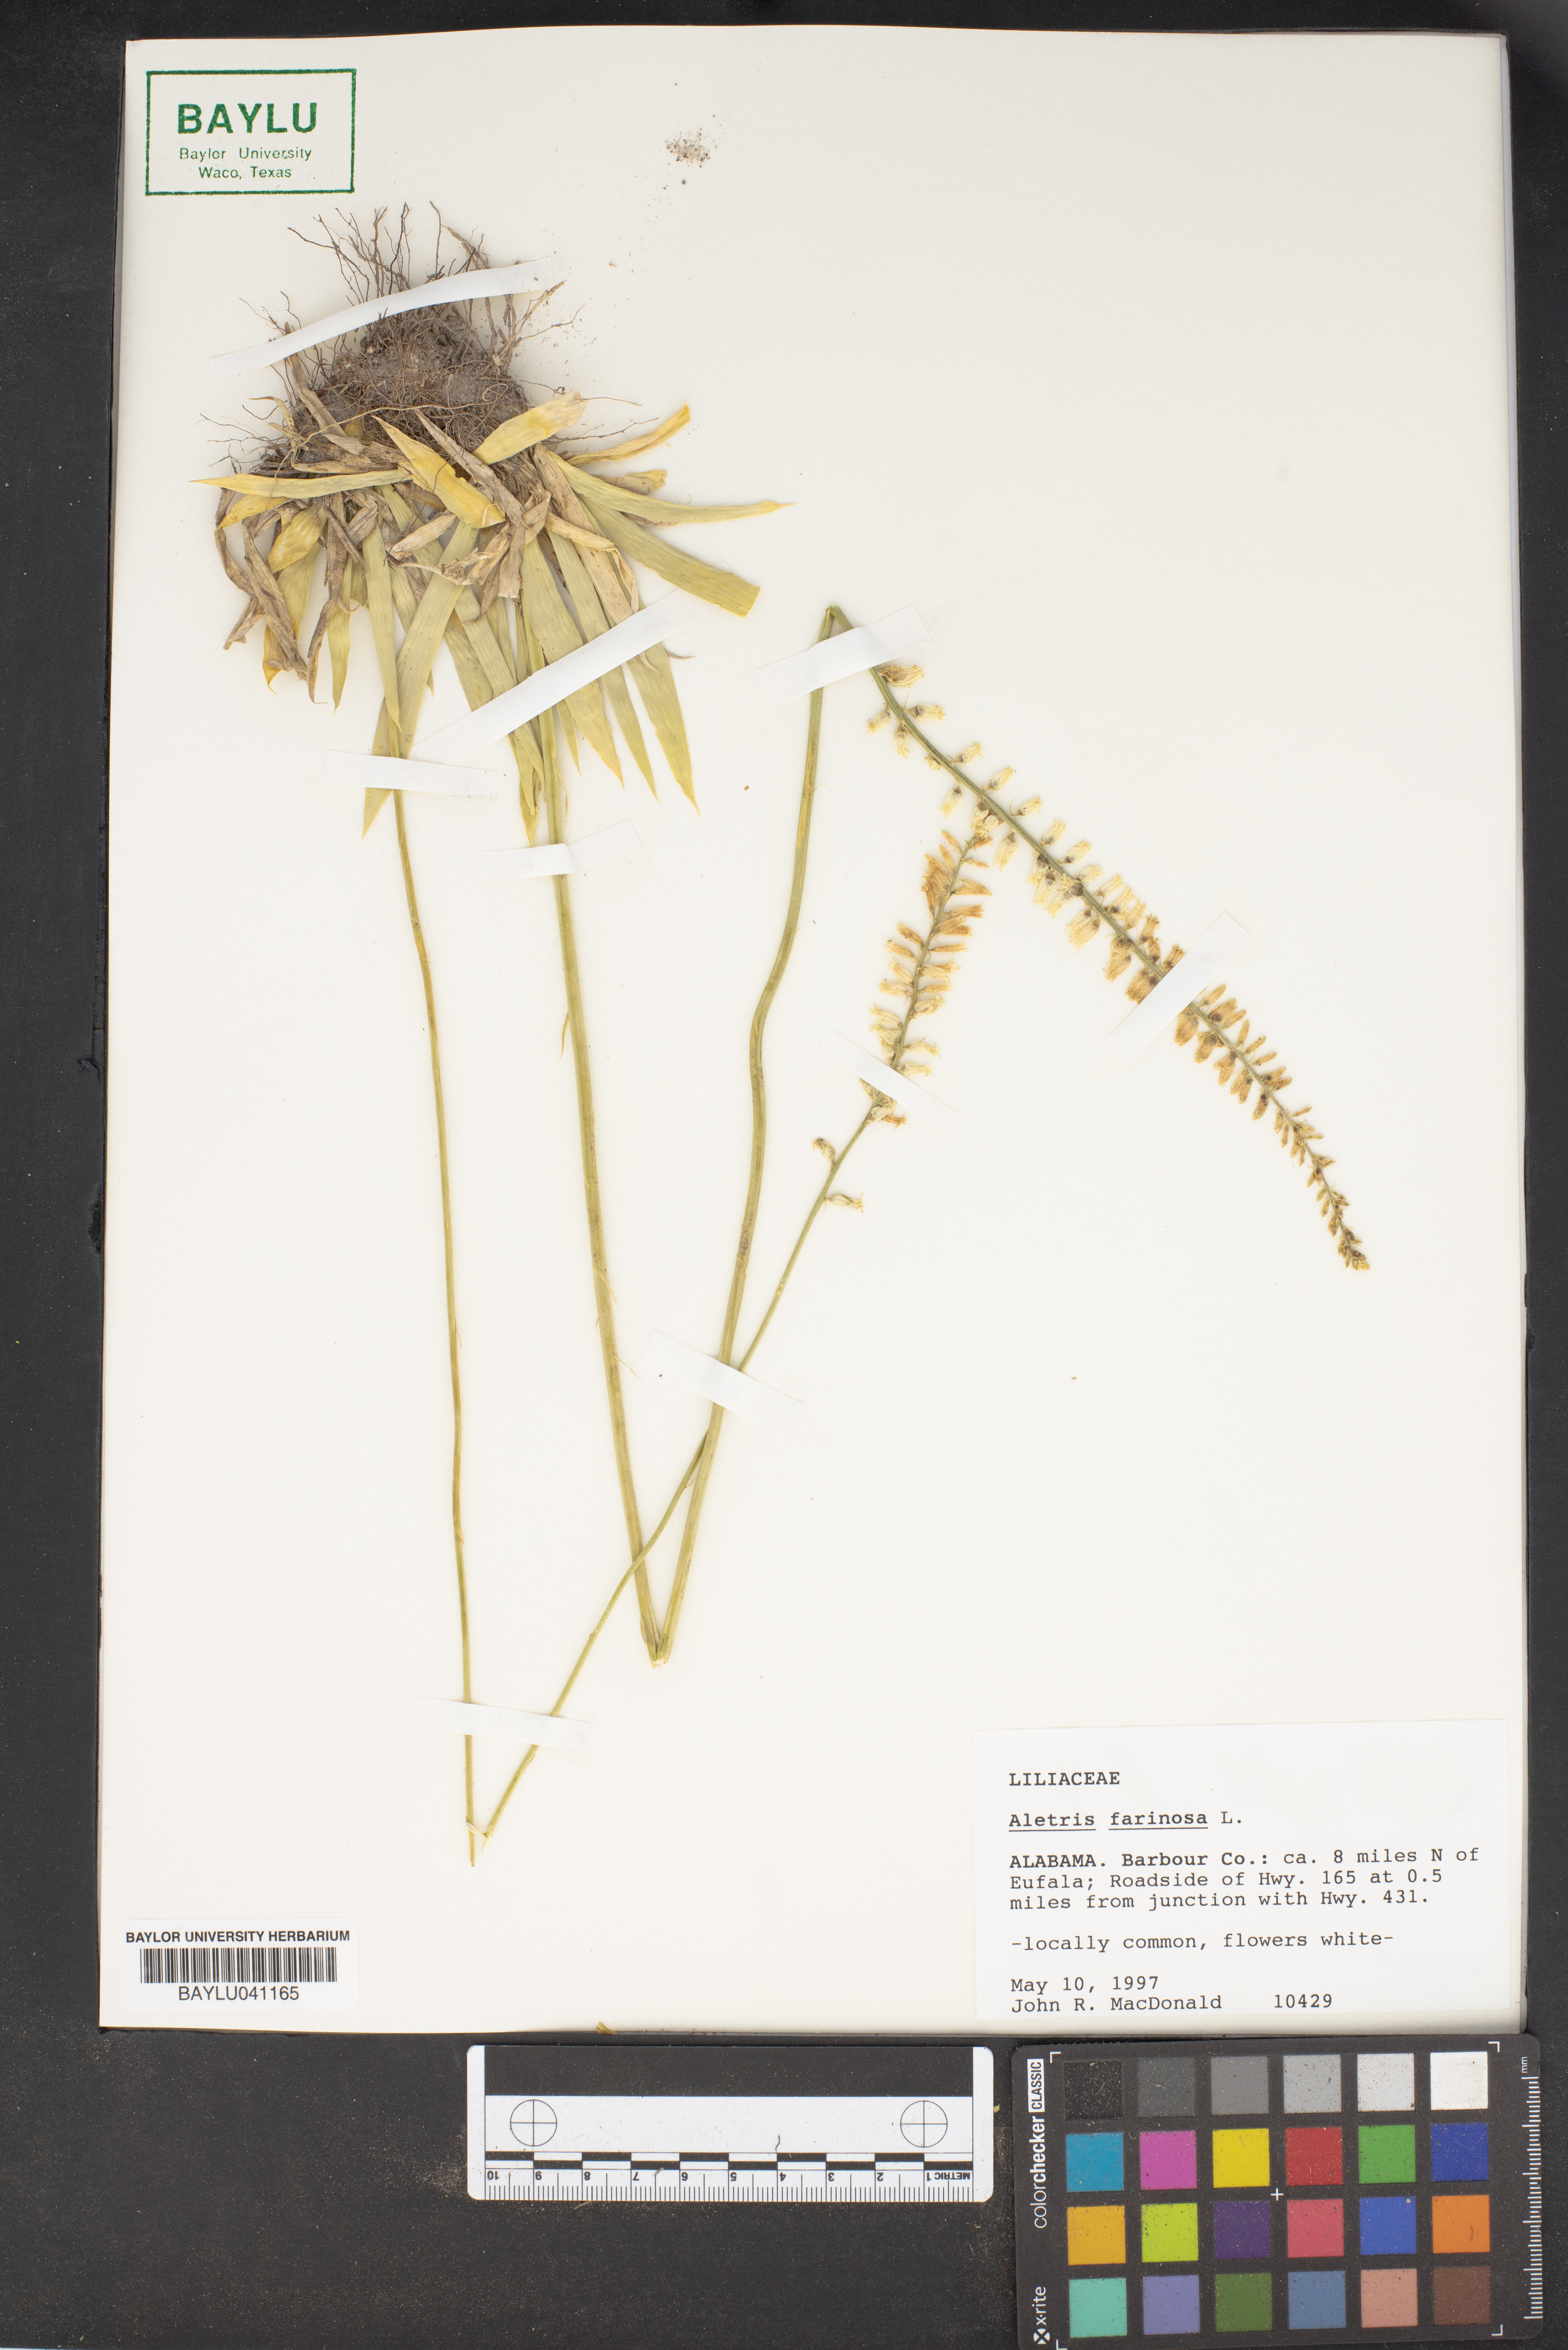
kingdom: Plantae
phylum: Tracheophyta
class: Liliopsida
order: Dioscoreales
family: Nartheciaceae
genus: Aletris
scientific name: Aletris farinosa
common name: Colicroot
